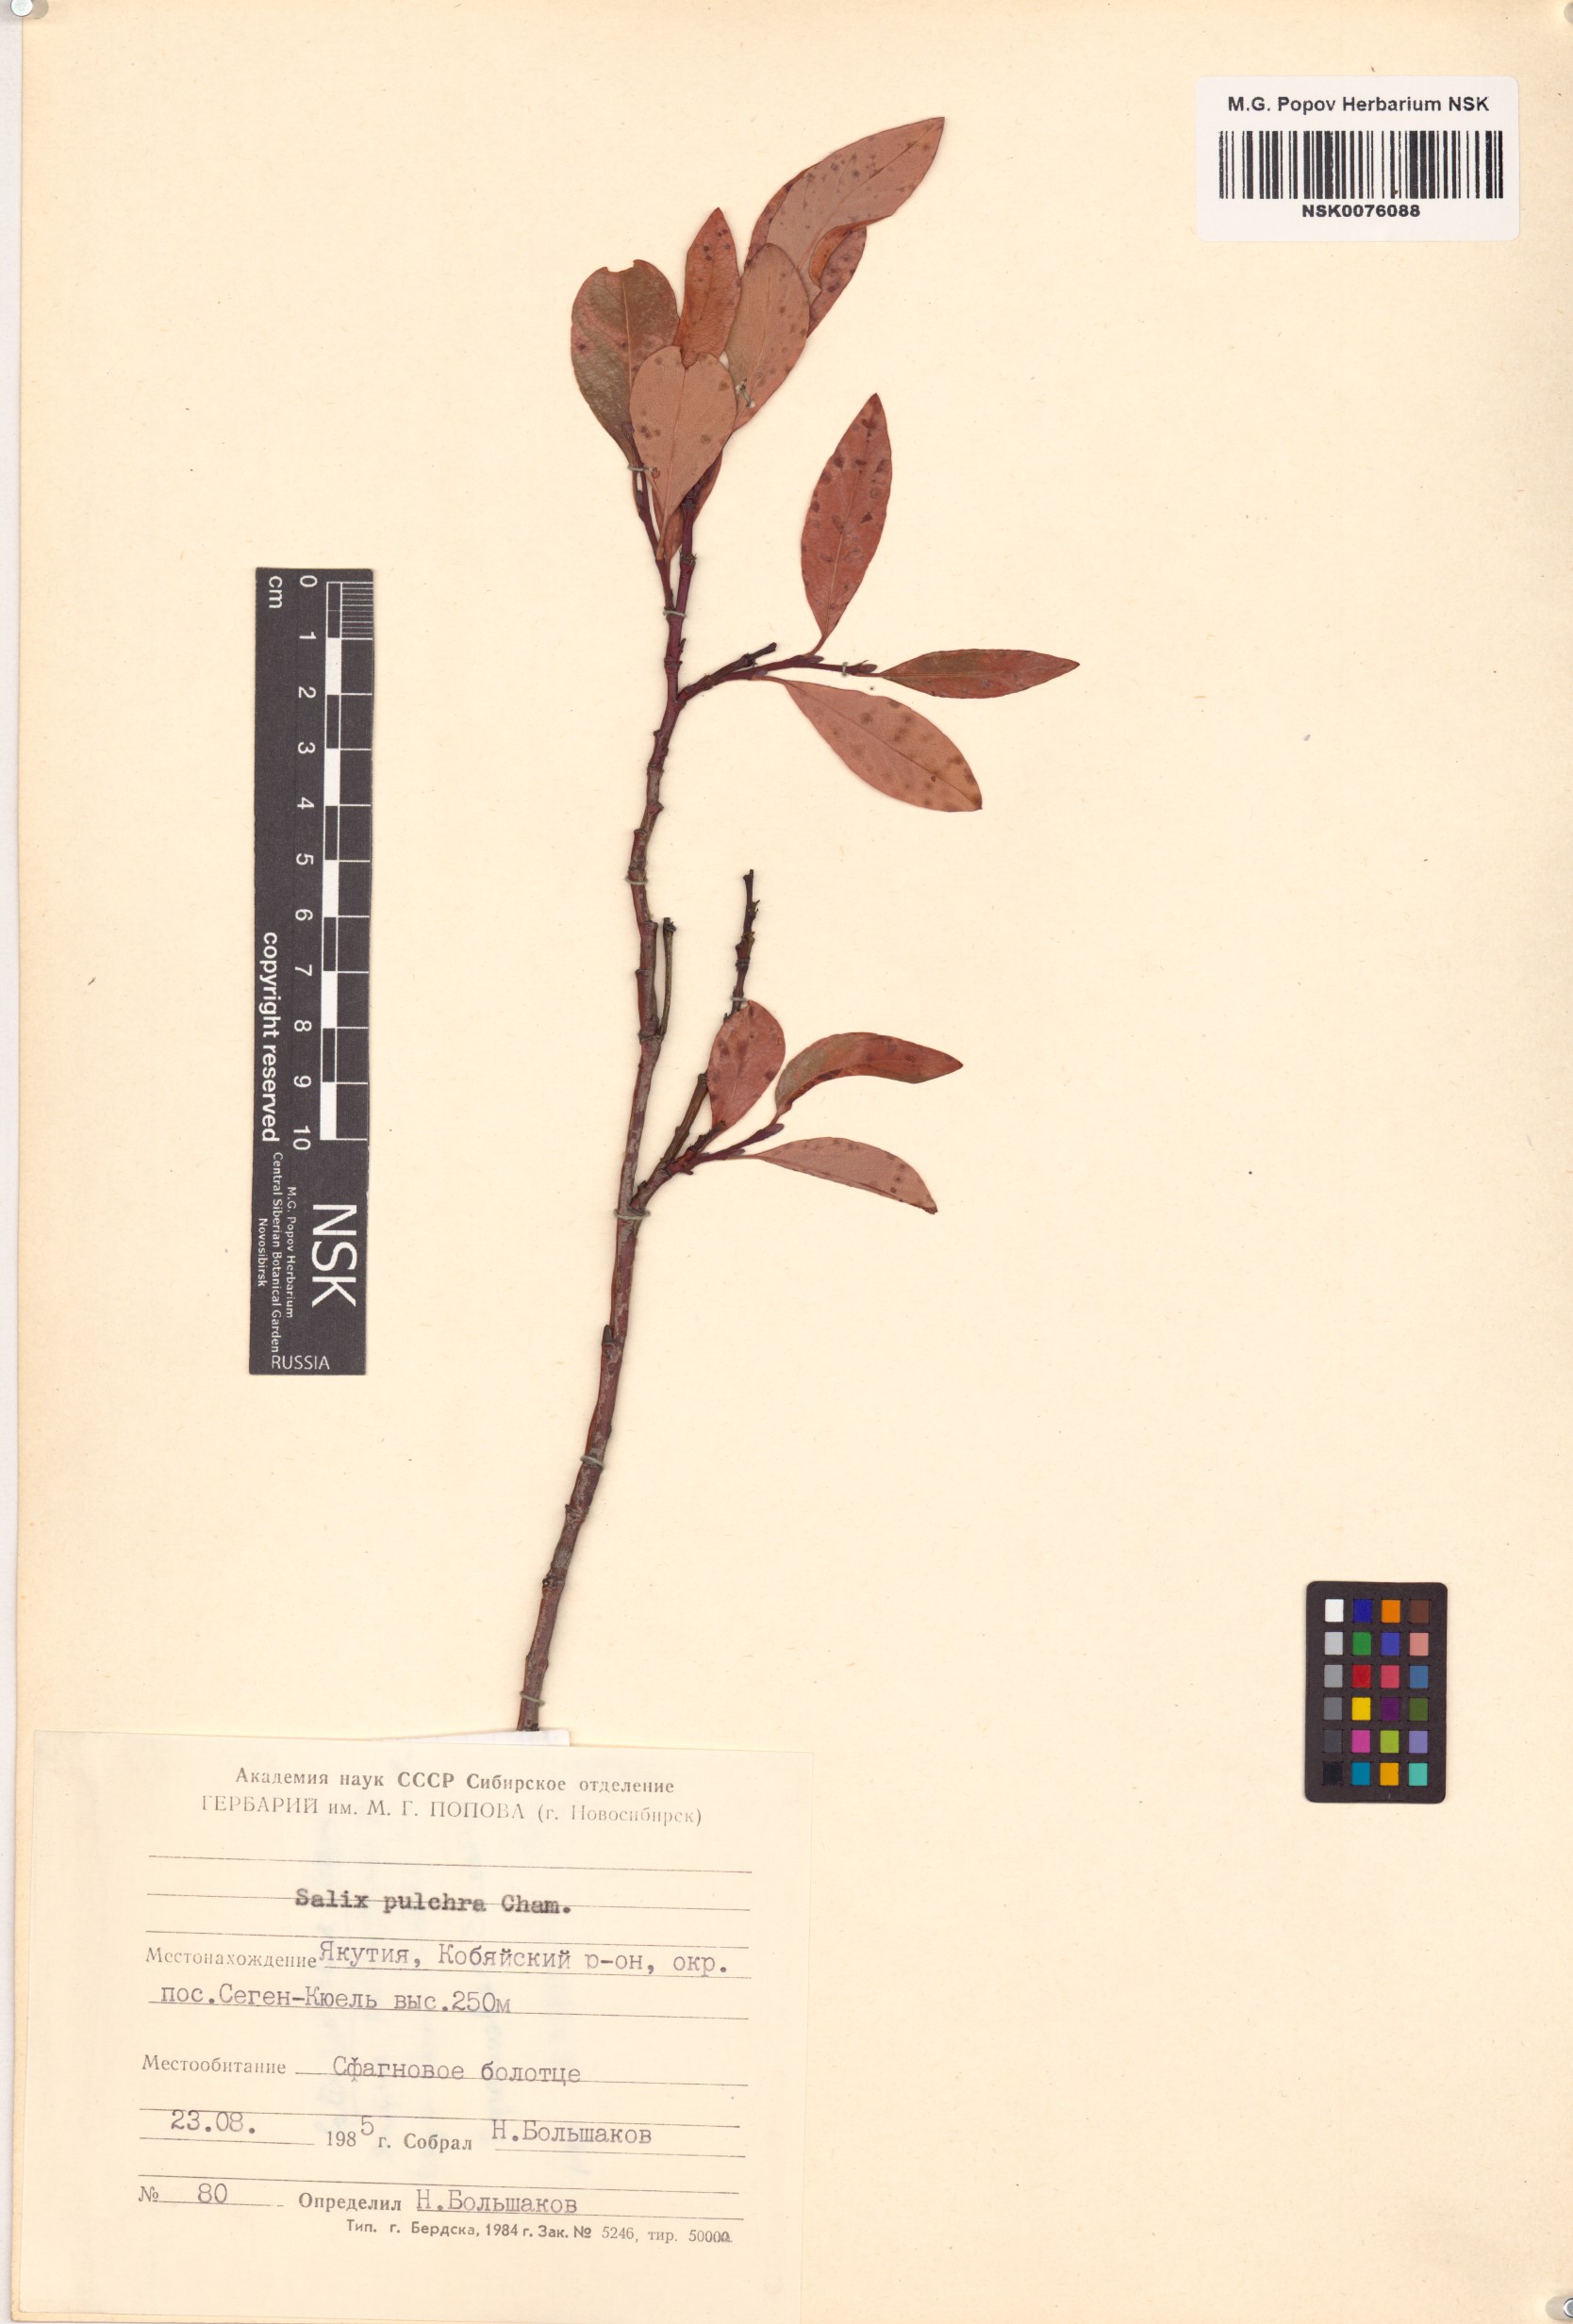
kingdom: Plantae
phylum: Tracheophyta
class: Magnoliopsida
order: Malpighiales
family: Salicaceae
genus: Salix
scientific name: Salix pulchra
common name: Diamond-leaved willow
